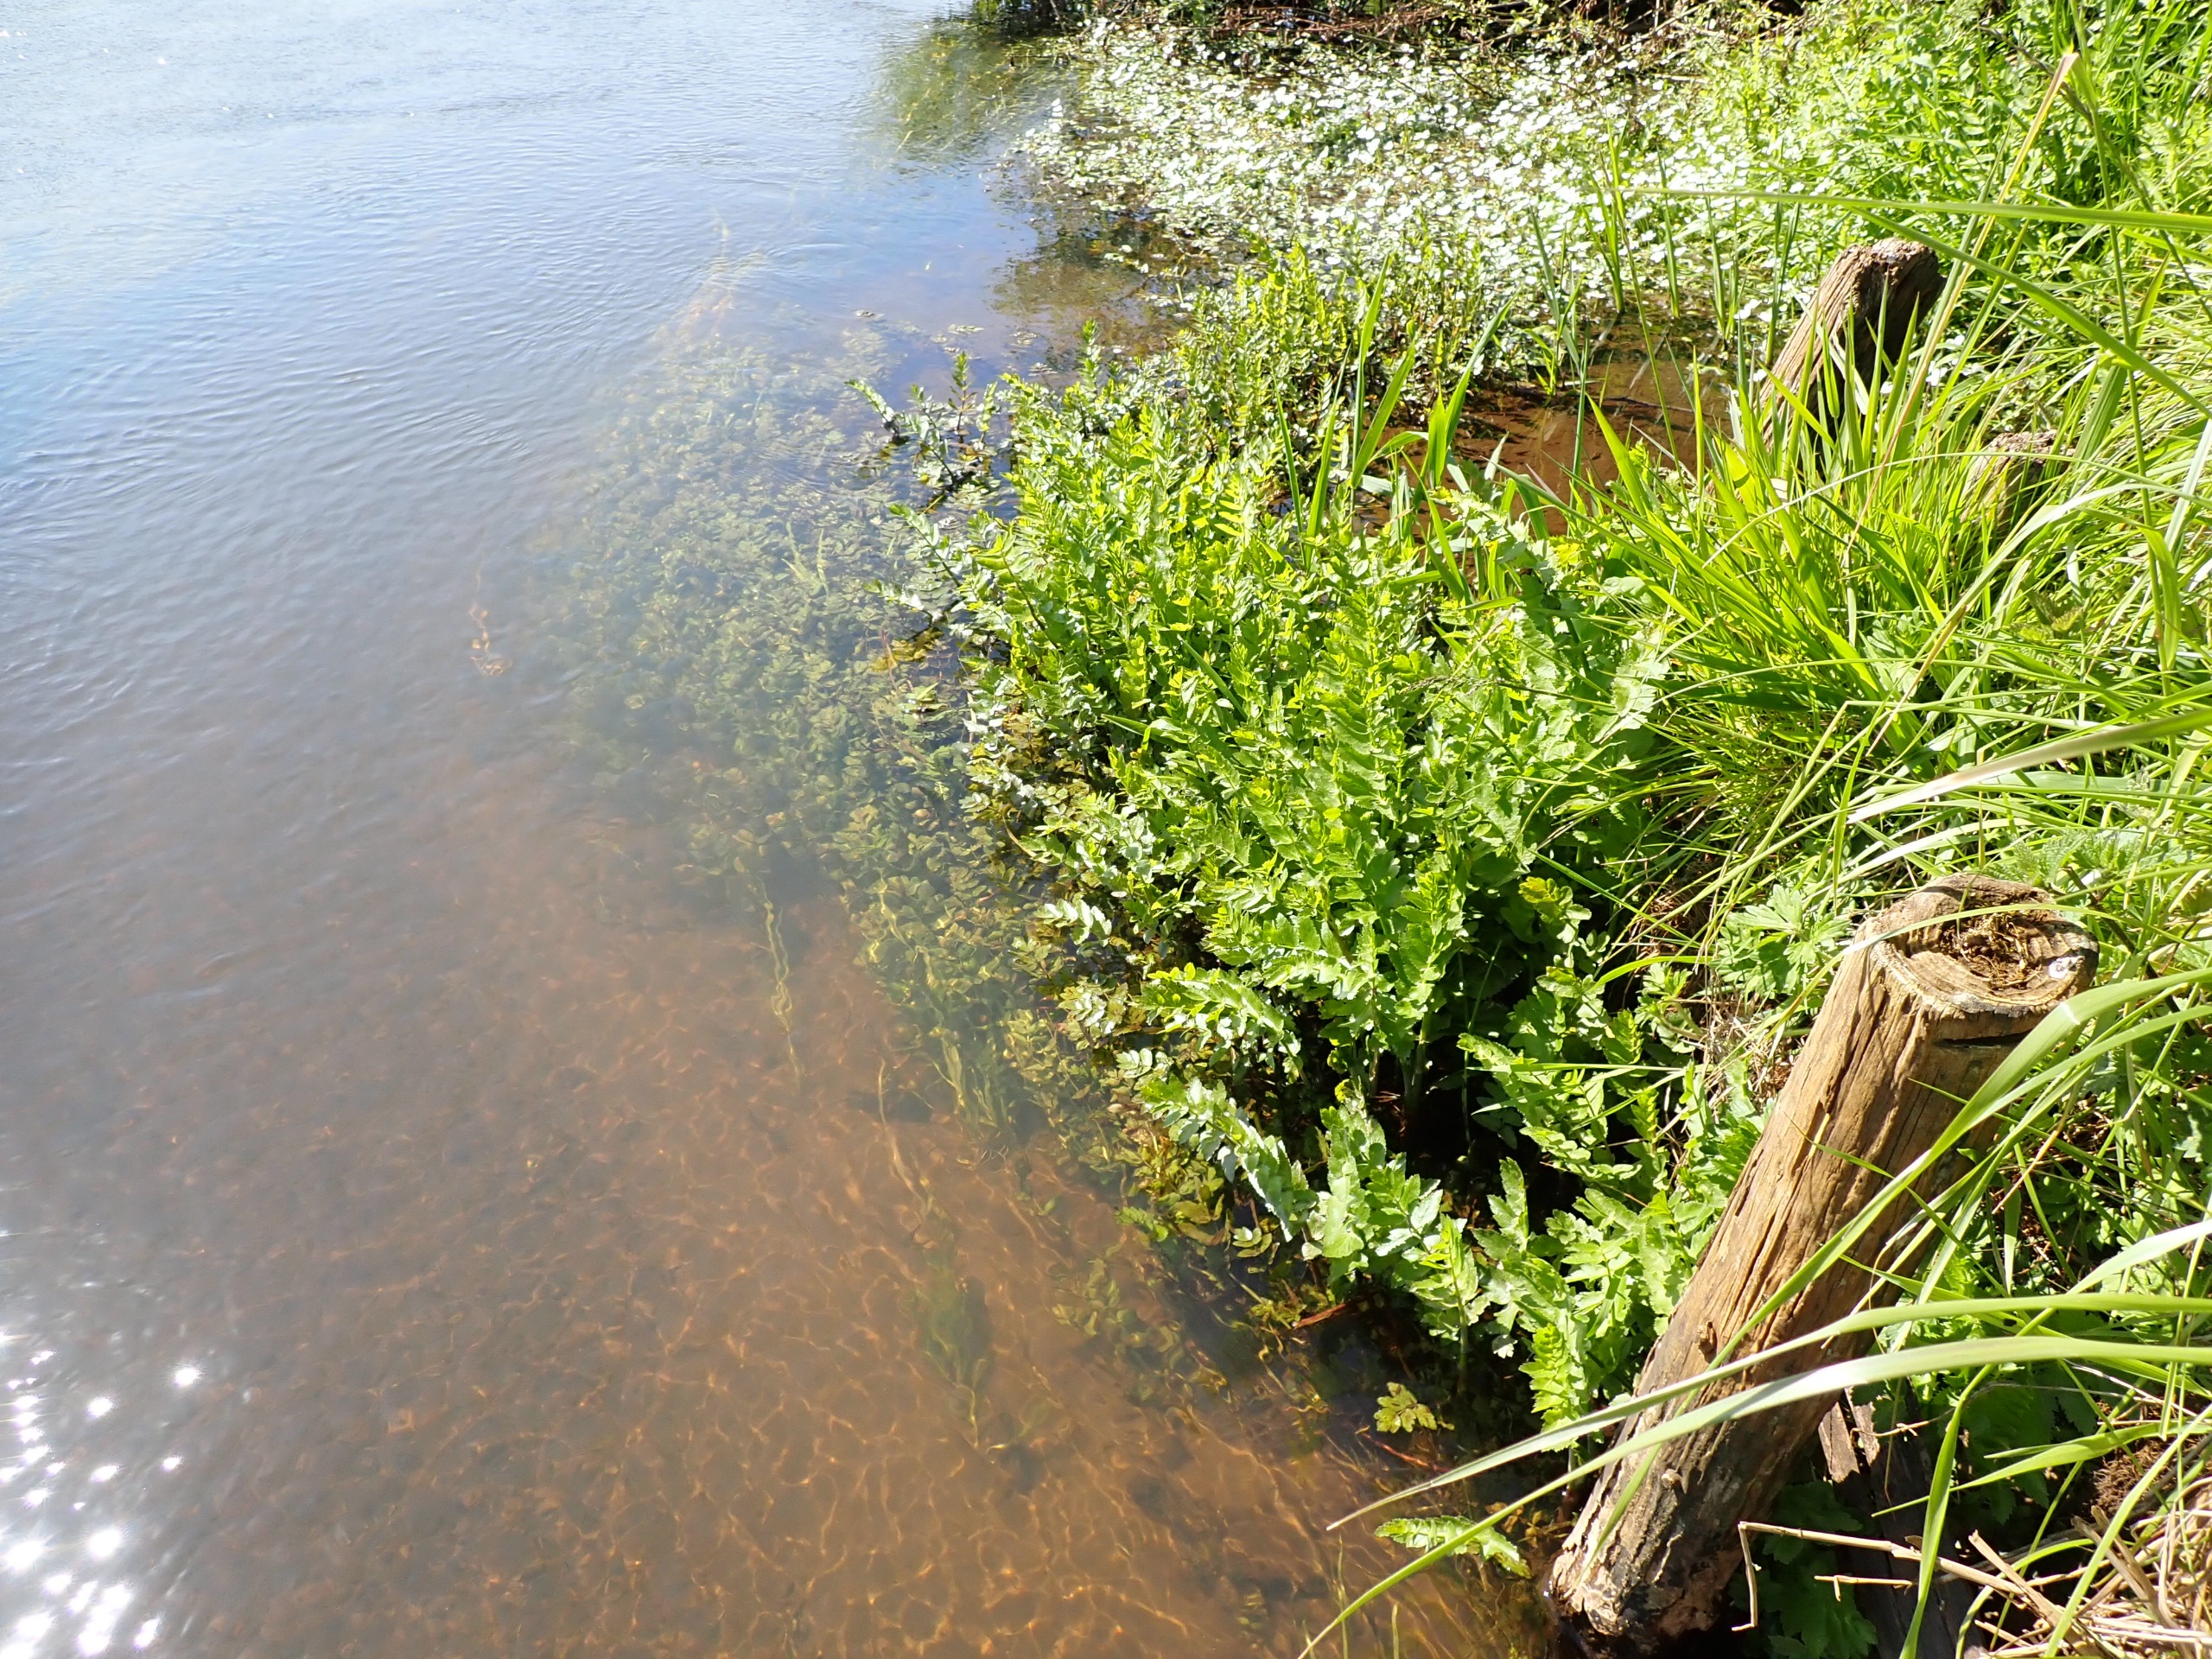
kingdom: Plantae
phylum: Tracheophyta
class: Magnoliopsida
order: Apiales
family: Apiaceae
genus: Berula
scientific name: Berula erecta
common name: Sideskærm
